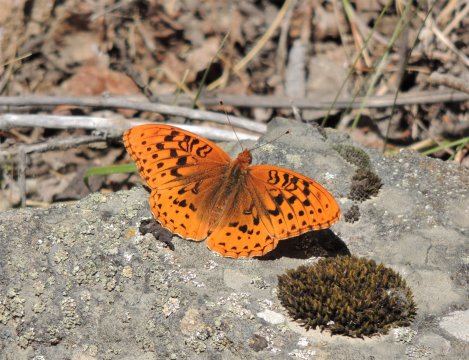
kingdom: Animalia
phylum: Arthropoda
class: Insecta
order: Lepidoptera
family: Nymphalidae
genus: Speyeria
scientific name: Speyeria cybele
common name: Great Spangled Fritillary
